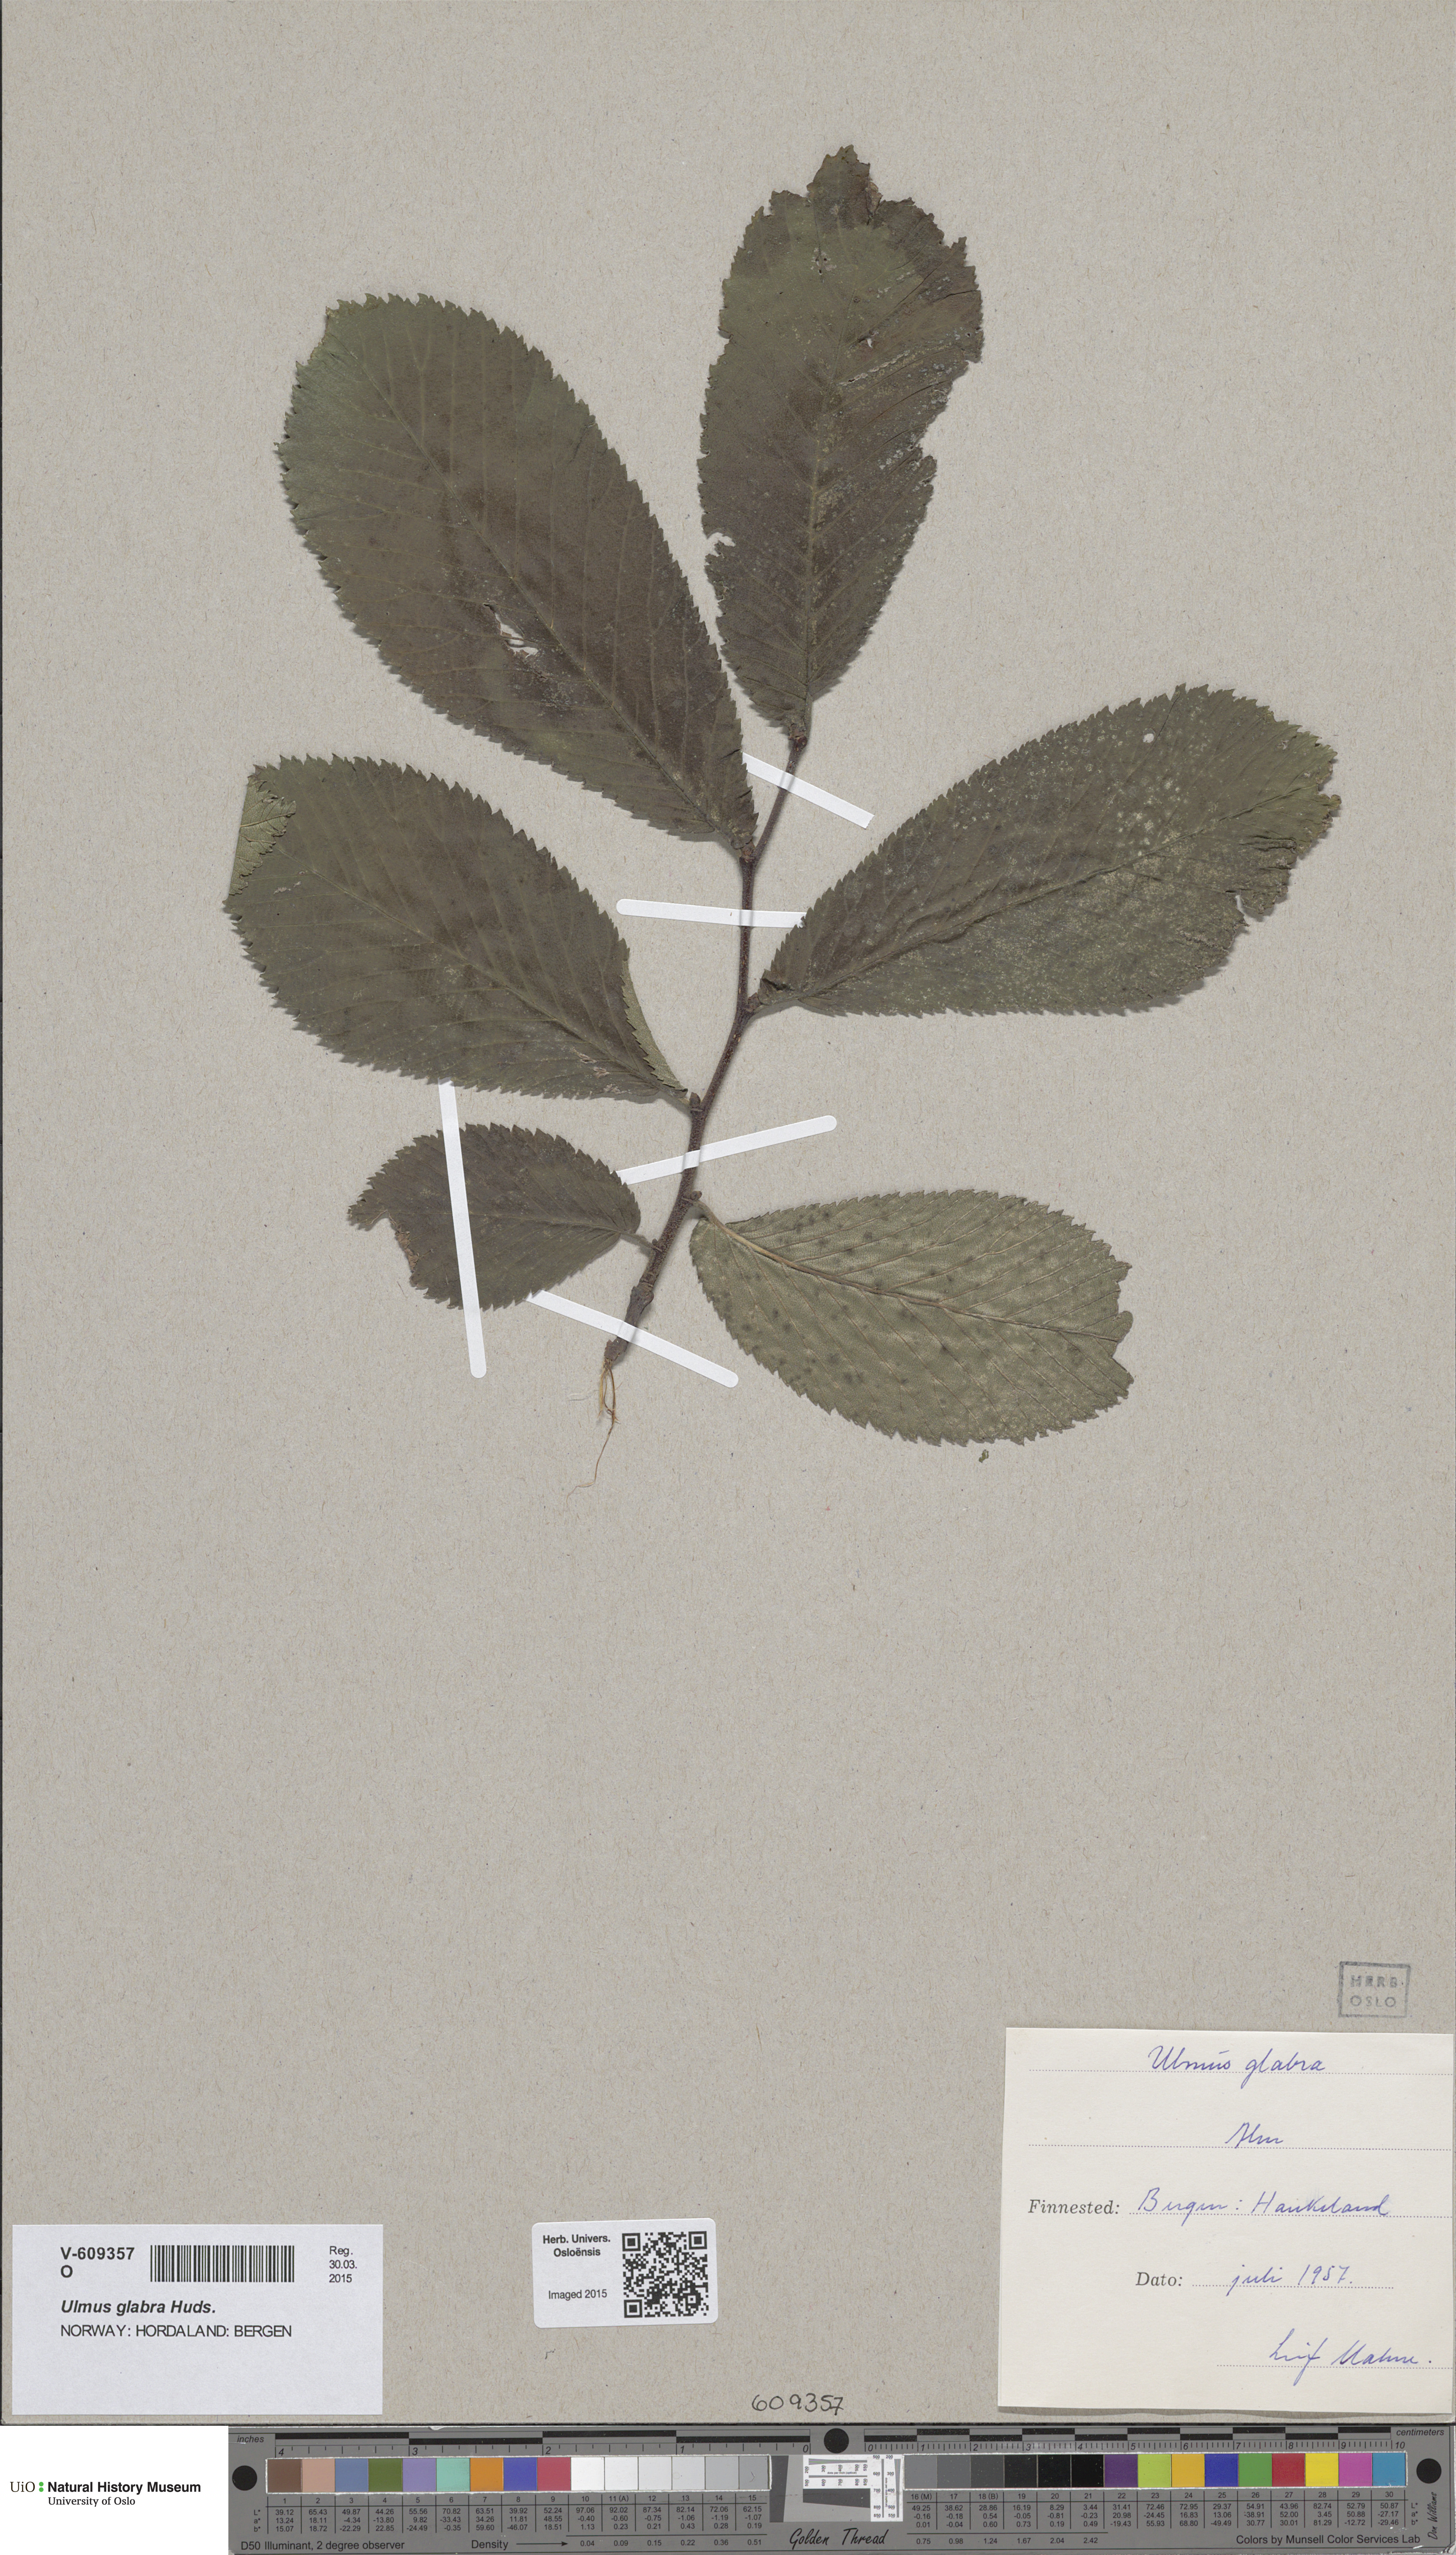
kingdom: Plantae
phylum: Tracheophyta
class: Magnoliopsida
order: Rosales
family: Ulmaceae
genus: Ulmus
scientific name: Ulmus glabra
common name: Wych elm
